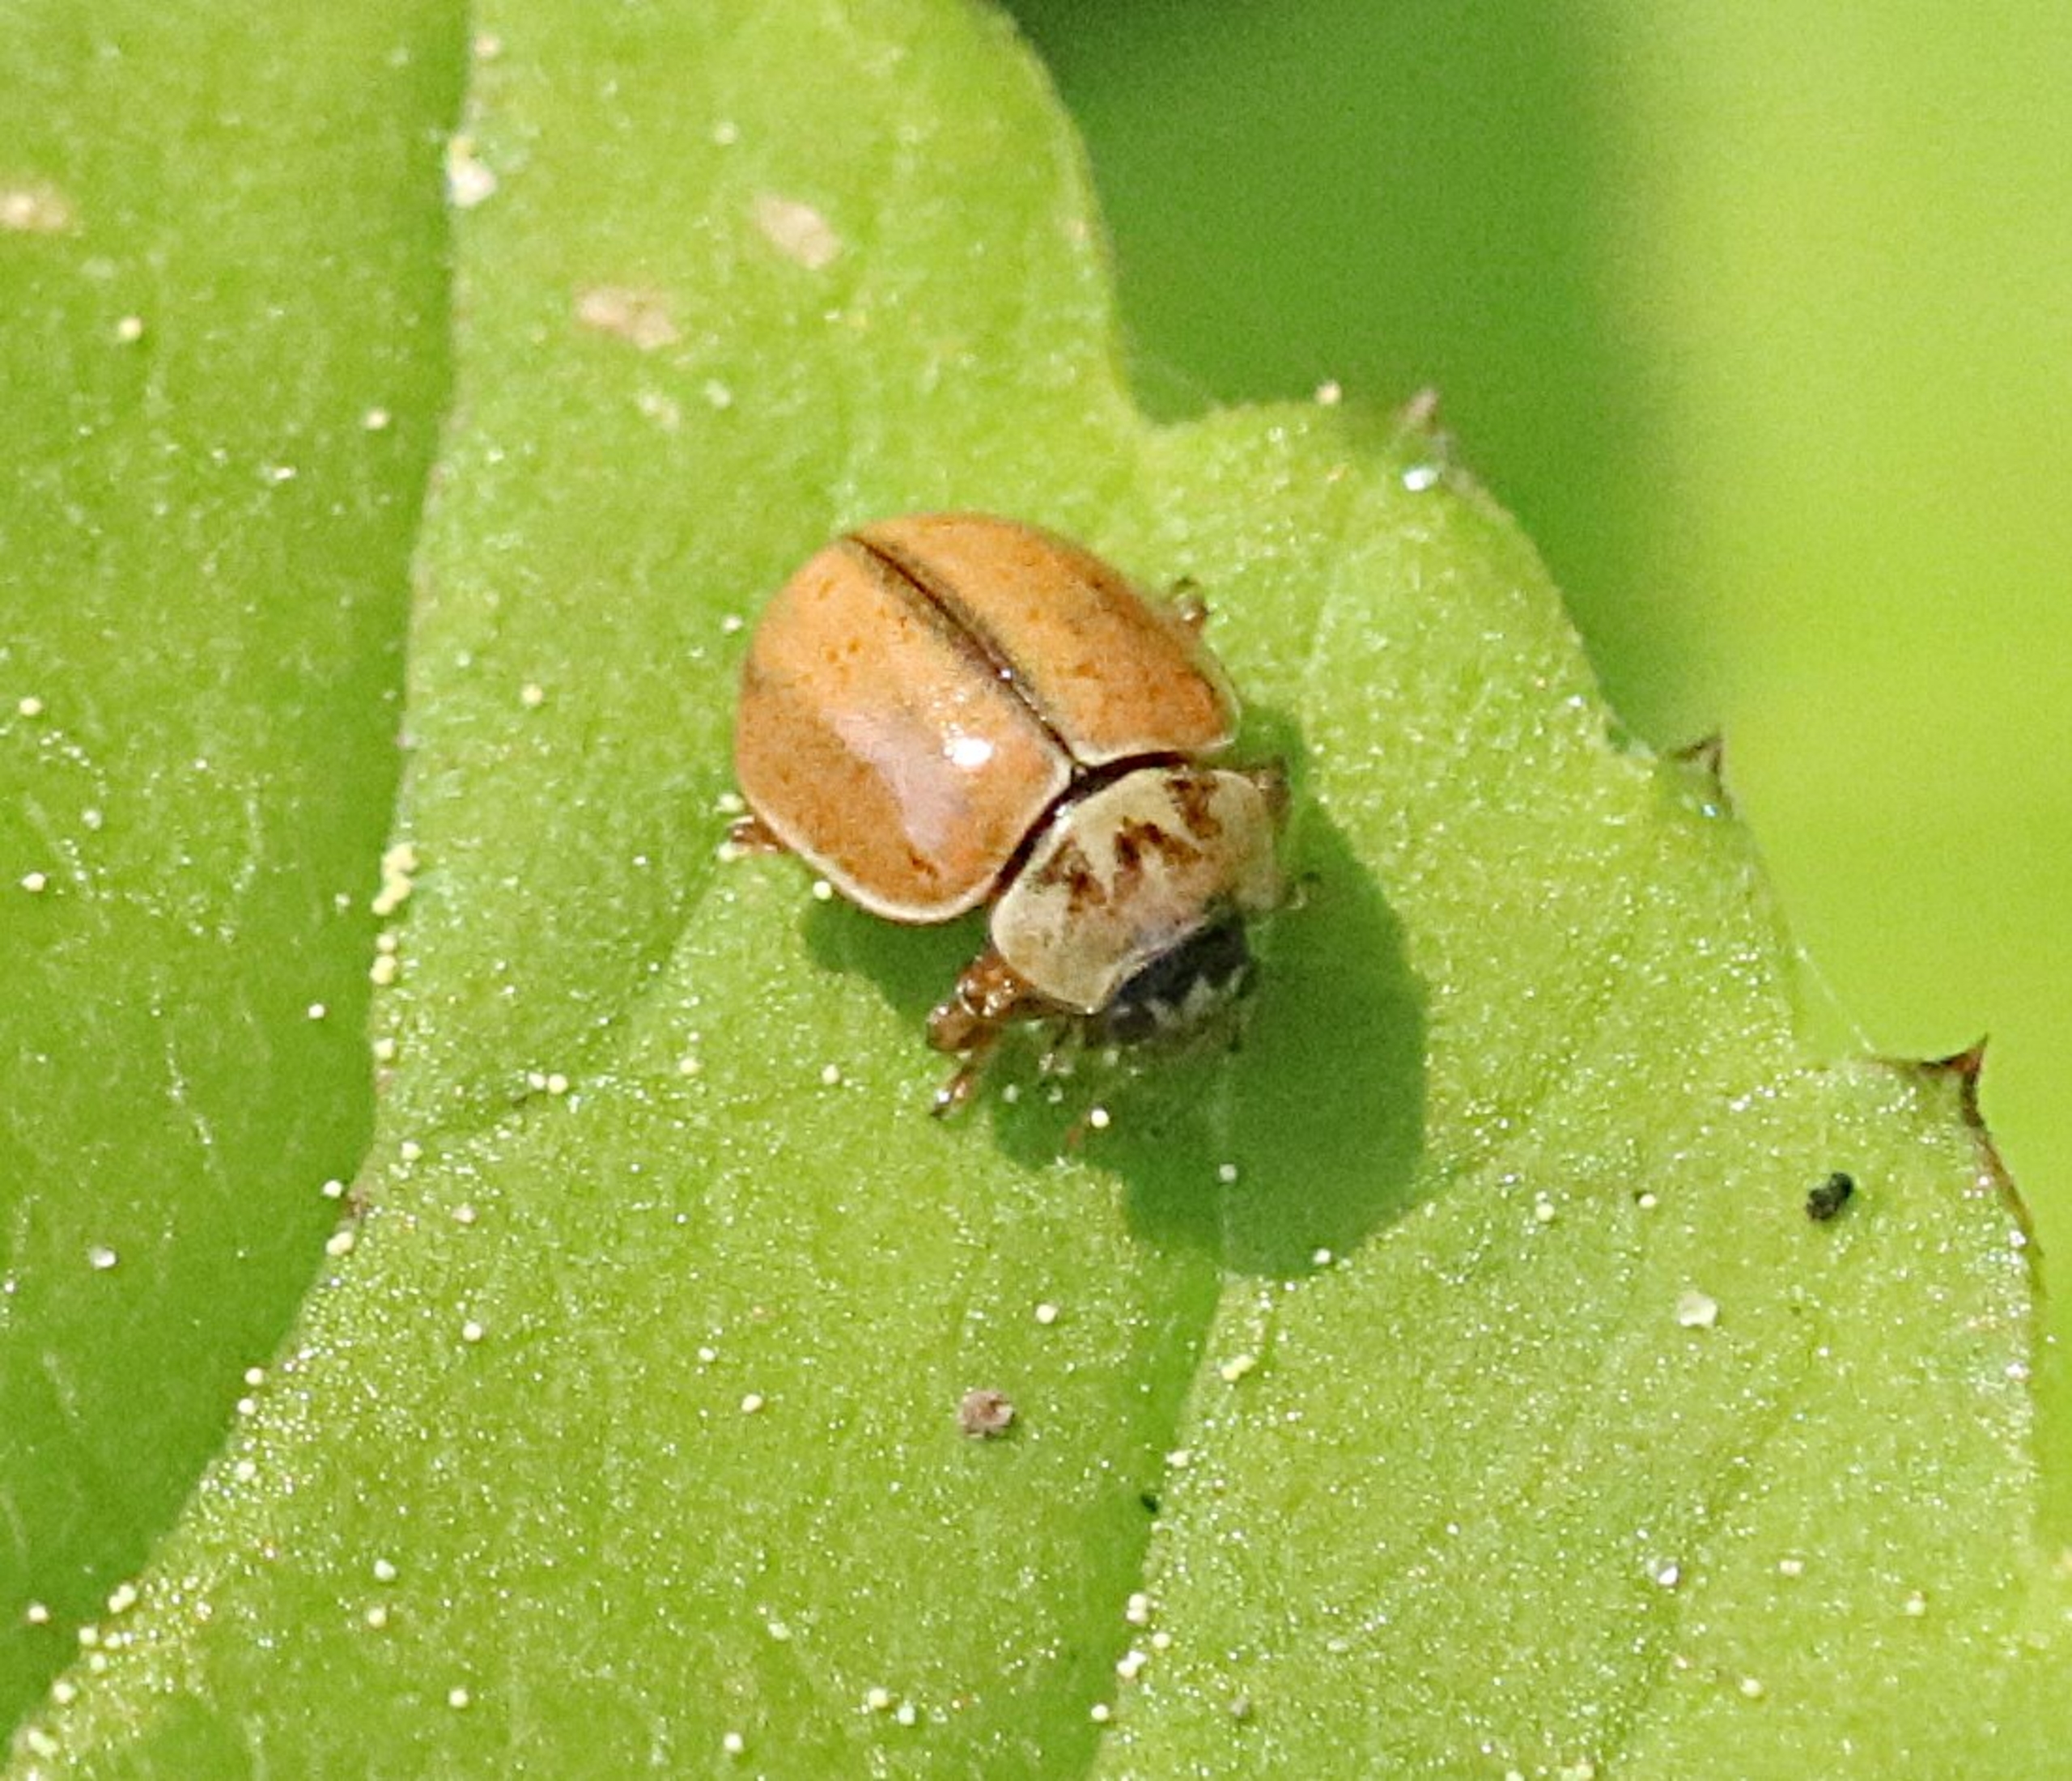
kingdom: Animalia
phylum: Arthropoda
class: Insecta
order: Coleoptera
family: Coccinellidae
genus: Aphidecta
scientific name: Aphidecta obliterata
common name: Uplettet mariehøne
